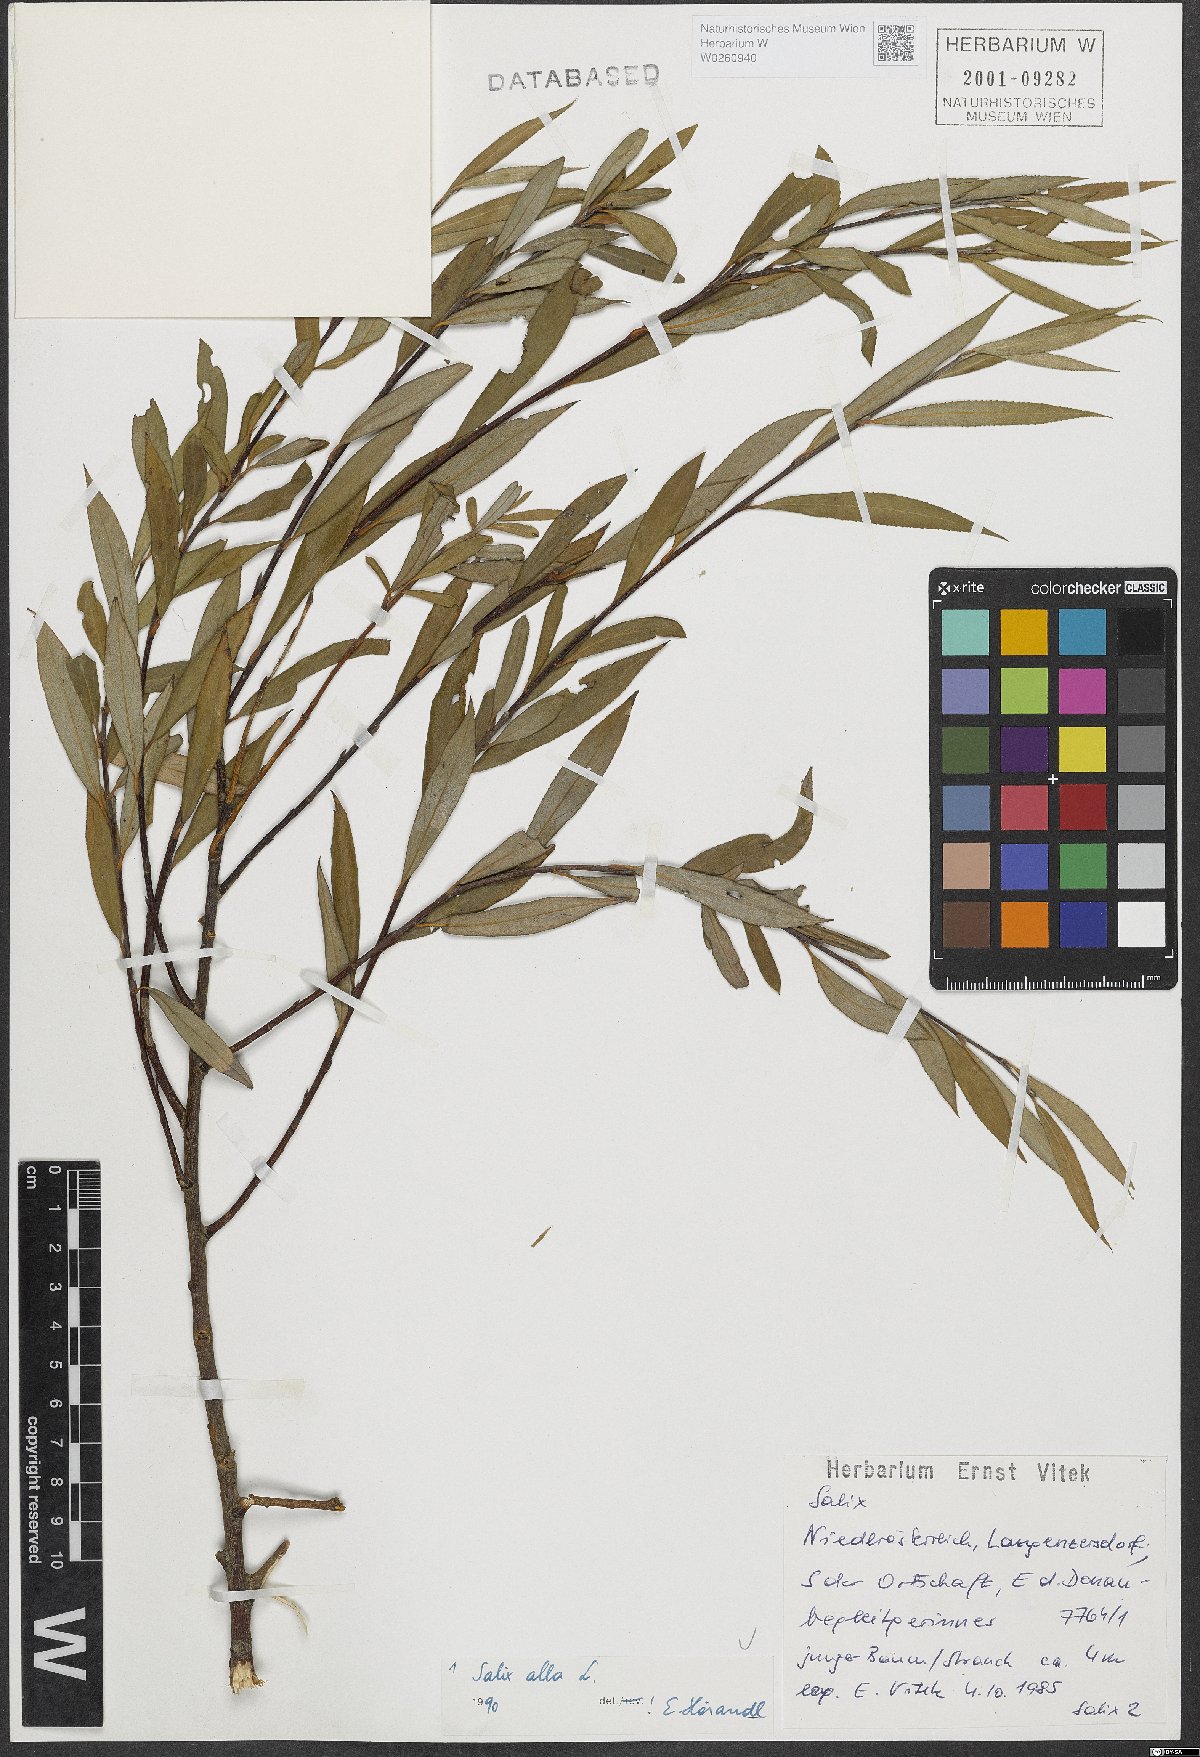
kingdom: Plantae
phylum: Tracheophyta
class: Magnoliopsida
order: Malpighiales
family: Salicaceae
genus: Salix
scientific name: Salix alba
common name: White willow
